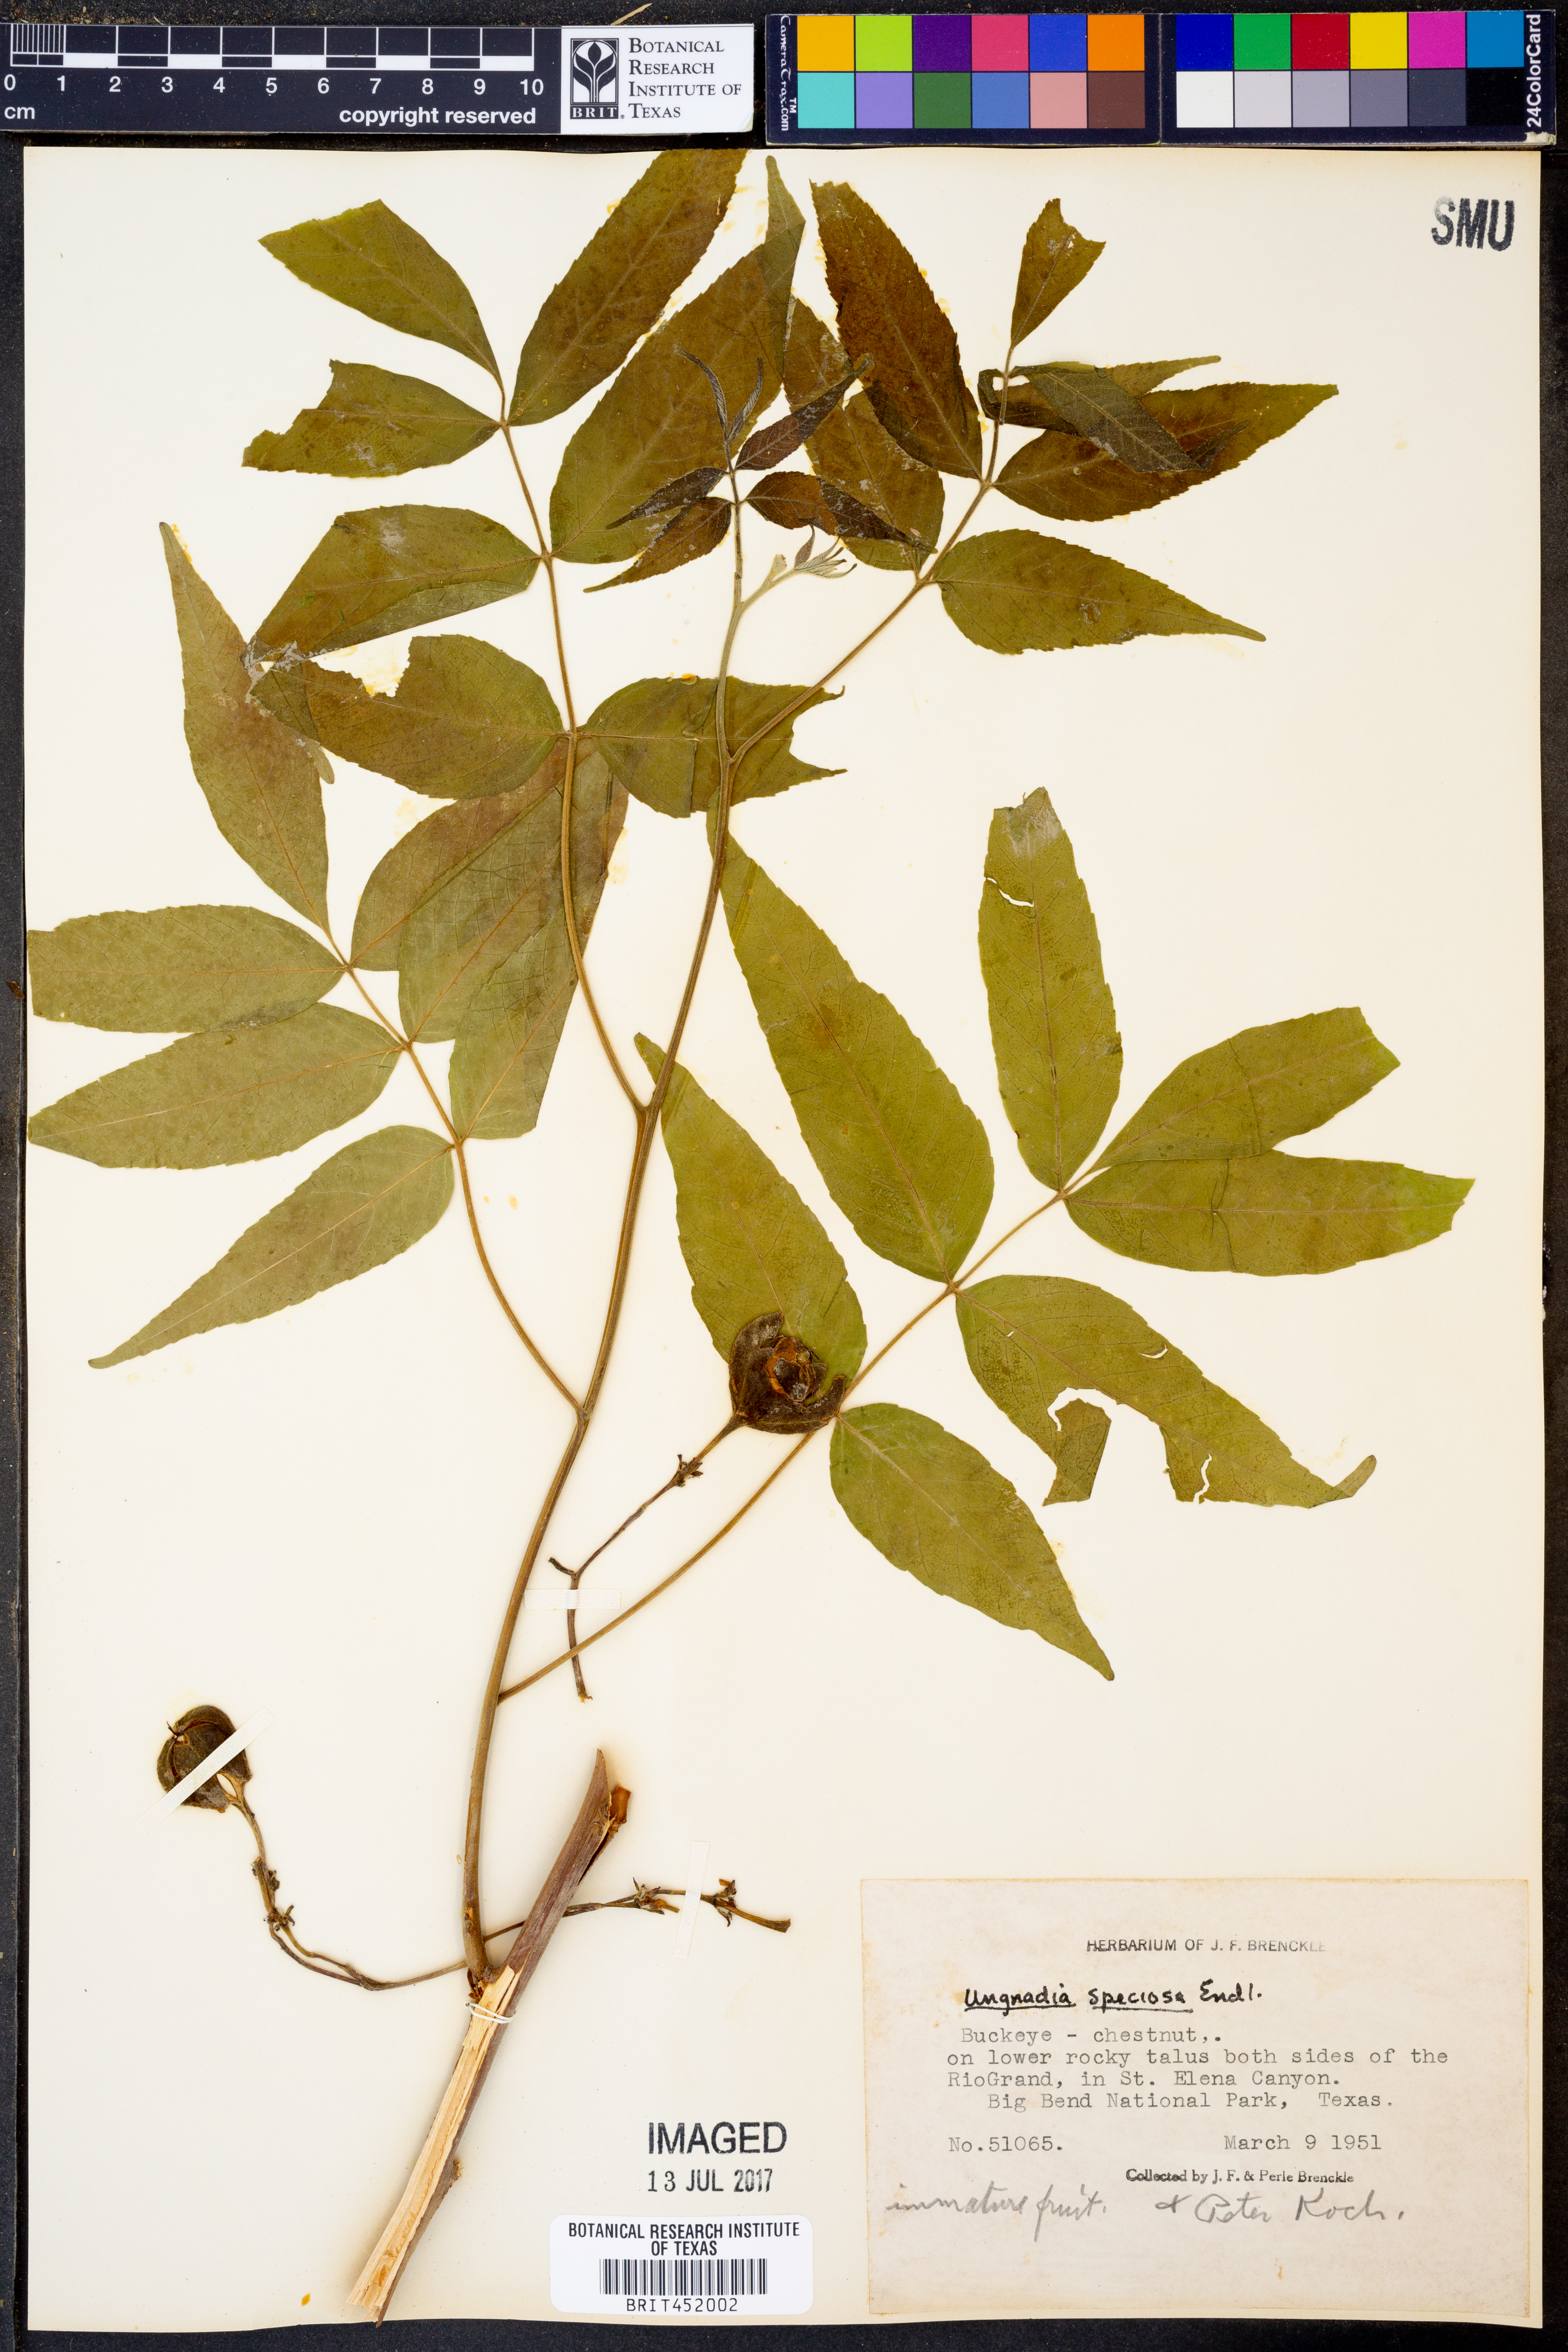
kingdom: Plantae
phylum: Tracheophyta
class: Magnoliopsida
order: Sapindales
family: Sapindaceae
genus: Ungnadia
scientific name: Ungnadia speciosa
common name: Texas-buckeye
